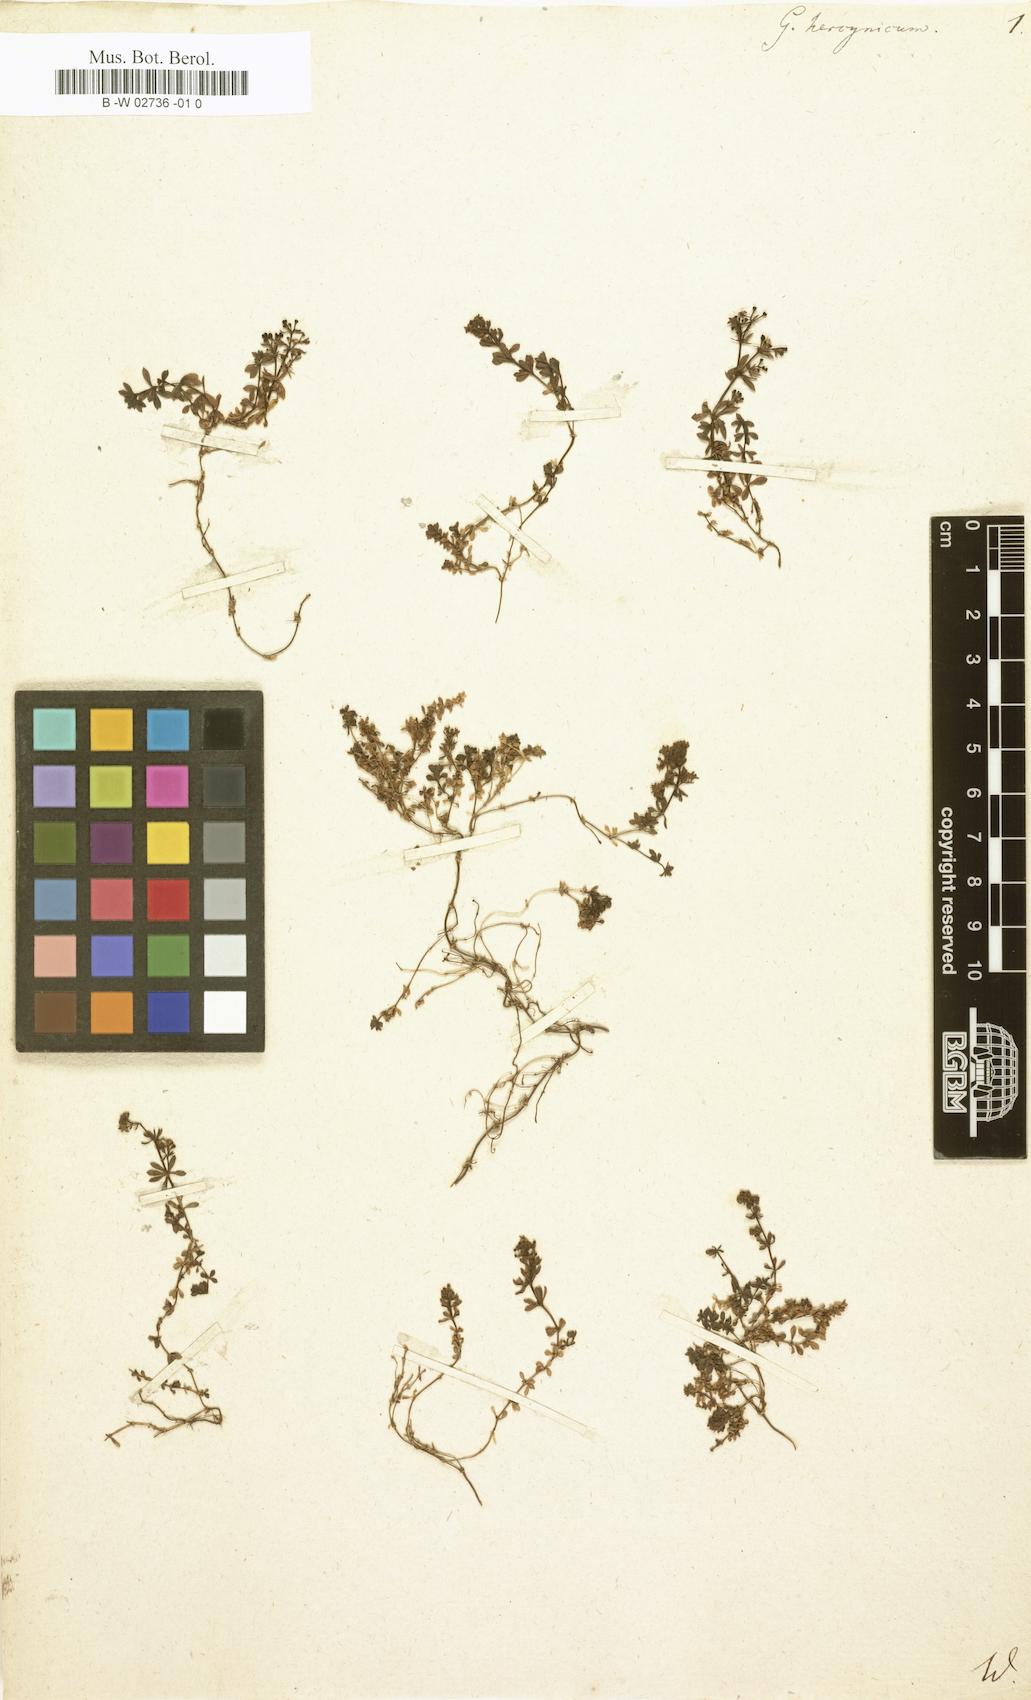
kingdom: Plantae
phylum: Tracheophyta
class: Magnoliopsida
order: Gentianales
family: Rubiaceae
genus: Galium
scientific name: Galium saxatile
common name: Heath bedstraw
